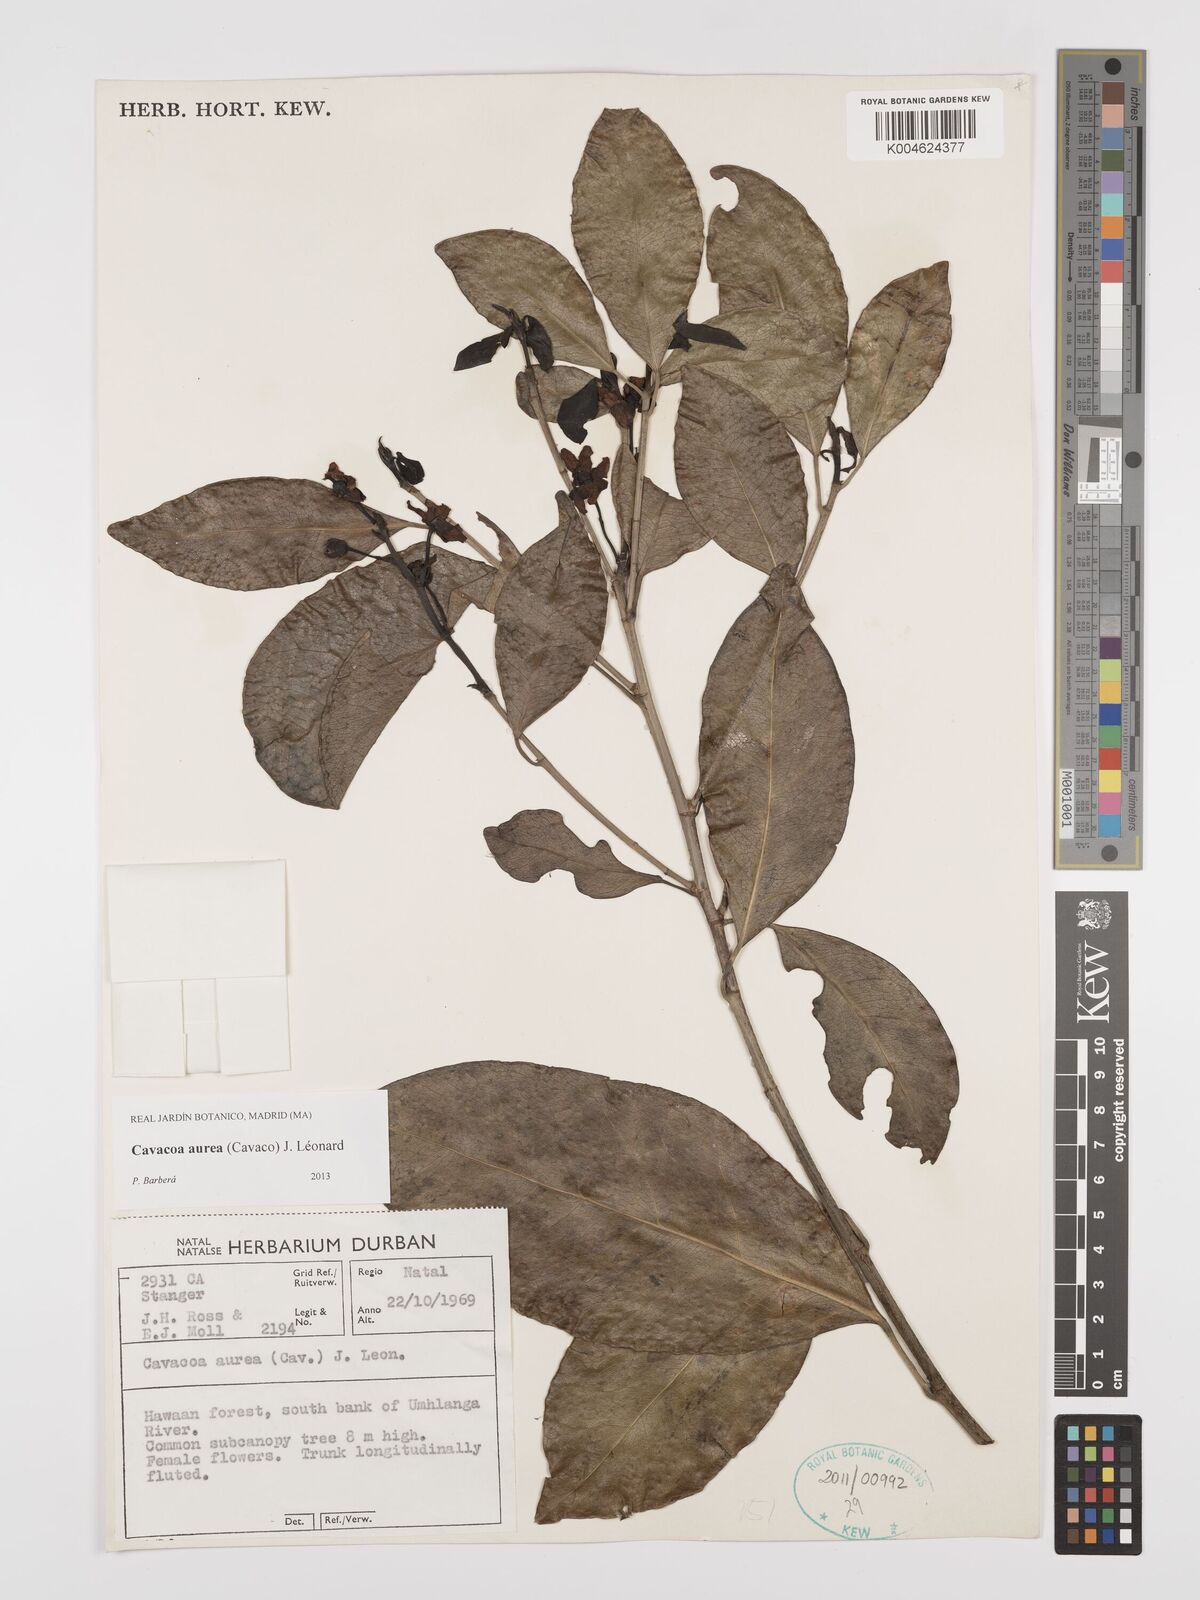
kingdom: Plantae
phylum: Tracheophyta
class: Magnoliopsida
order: Malpighiales
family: Euphorbiaceae
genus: Cavacoa
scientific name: Cavacoa aurea
